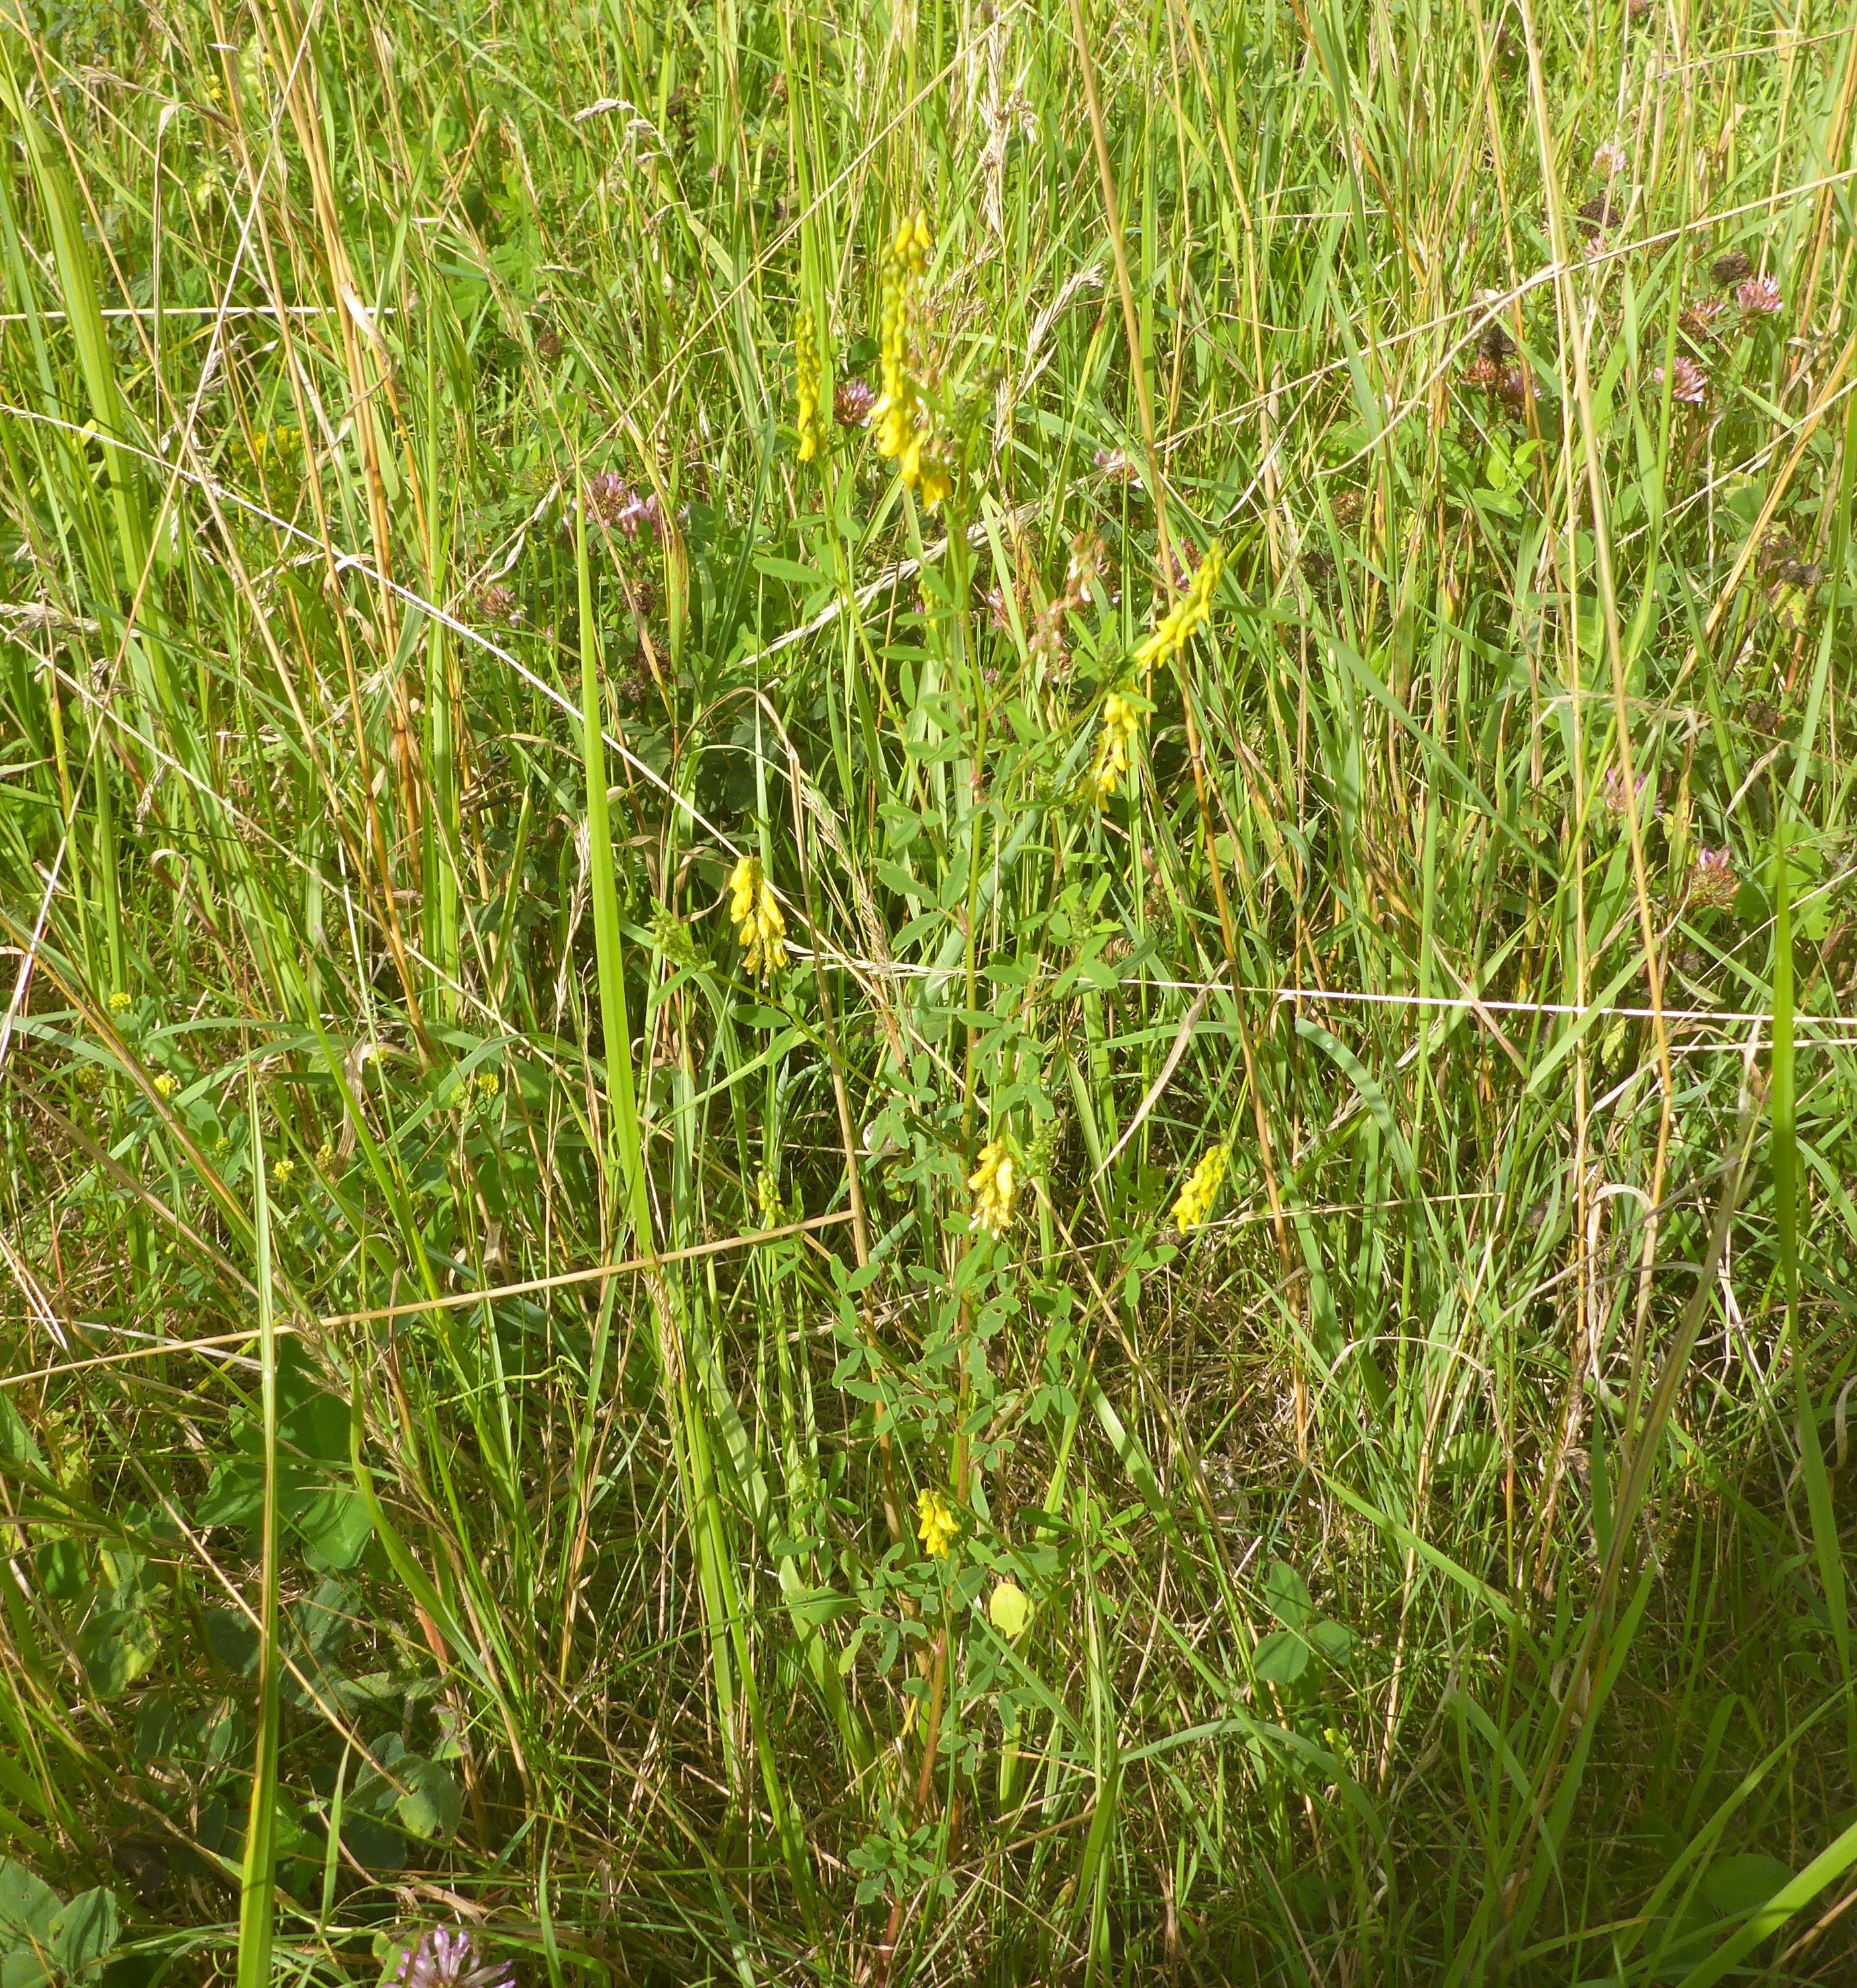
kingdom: Plantae
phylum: Tracheophyta
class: Magnoliopsida
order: Fabales
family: Fabaceae
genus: Melilotus
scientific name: Melilotus
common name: Stenkløverslægten
